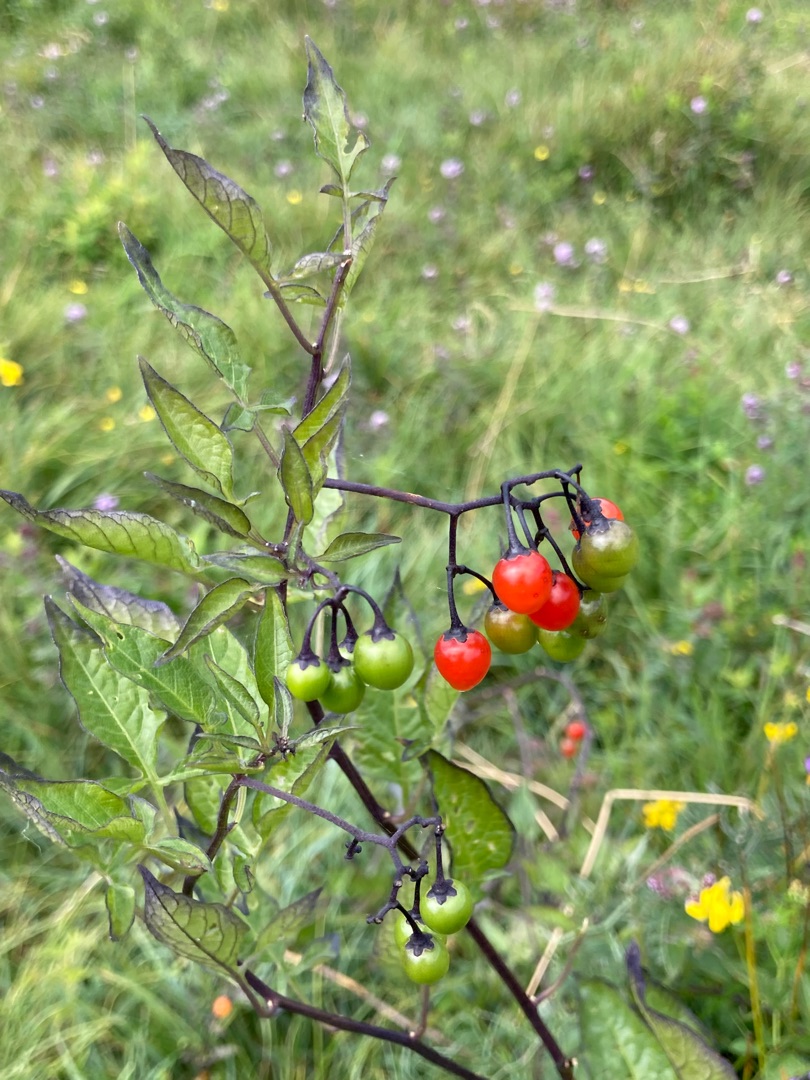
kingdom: Plantae
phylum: Tracheophyta
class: Magnoliopsida
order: Solanales
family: Solanaceae
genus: Solanum
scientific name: Solanum dulcamara
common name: Bittersød natskygge
